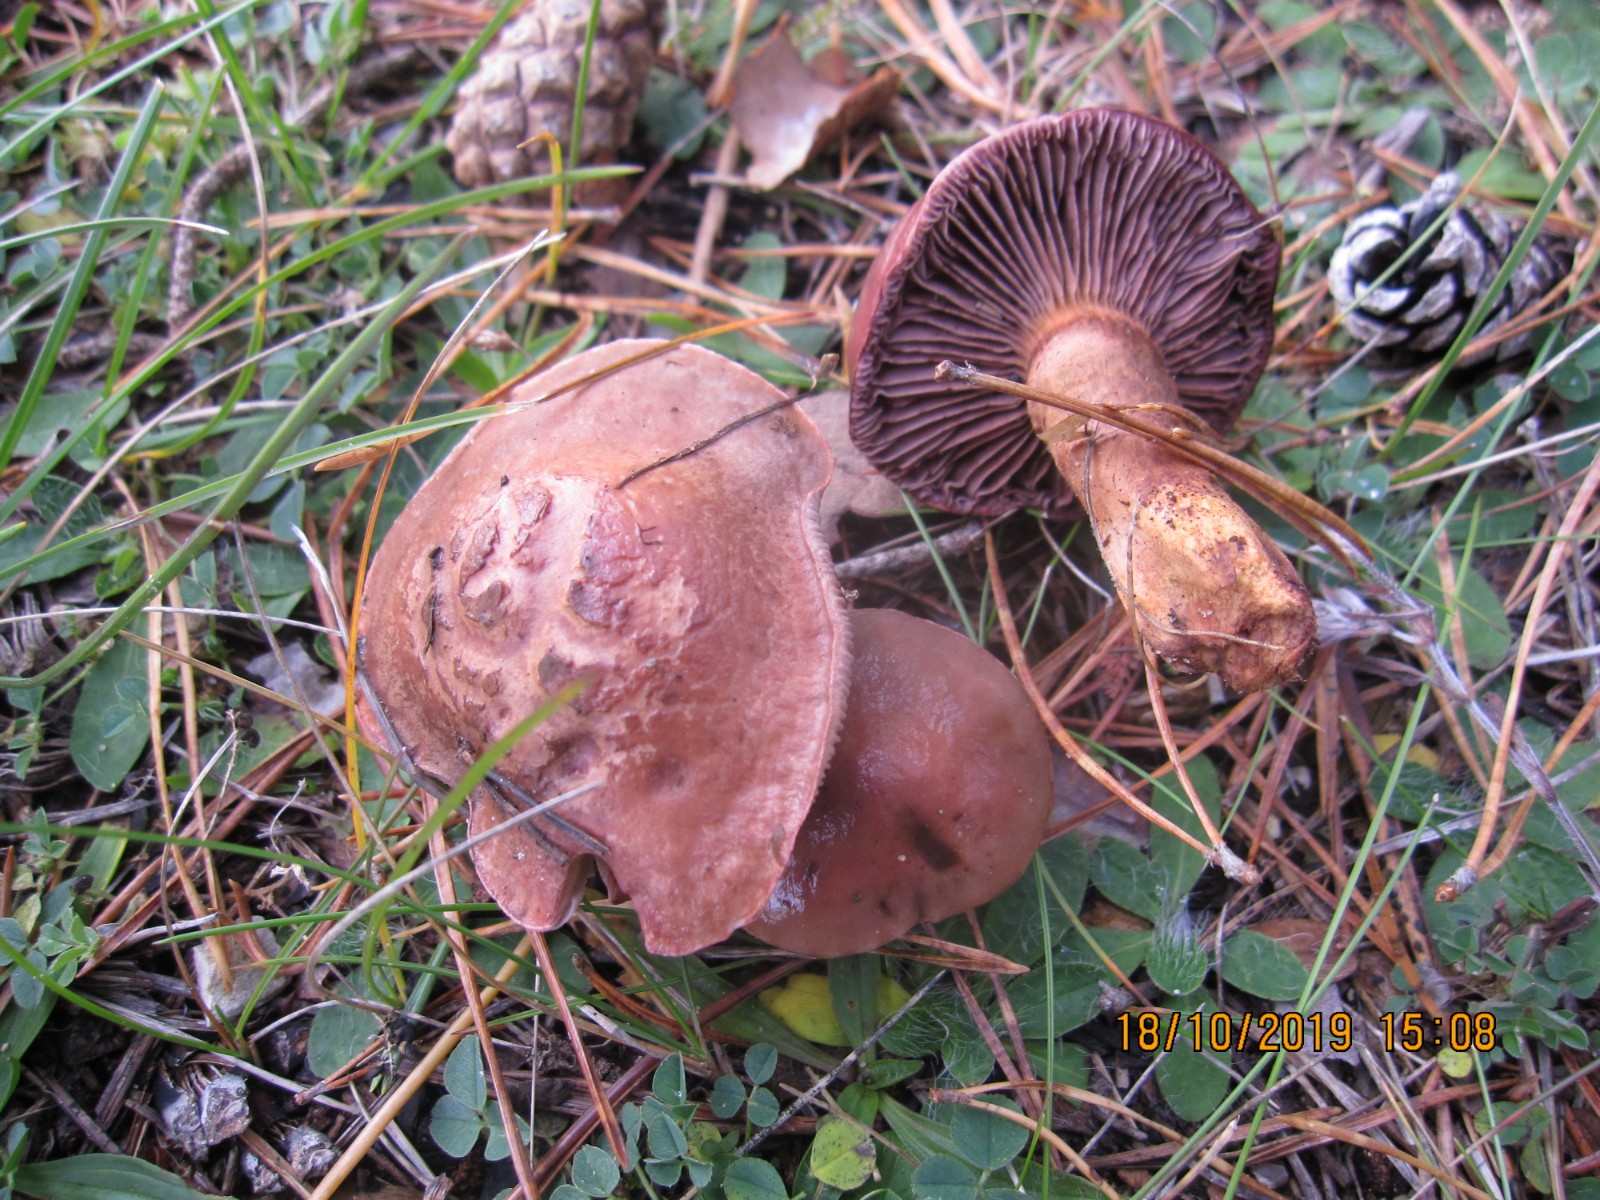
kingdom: Fungi
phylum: Basidiomycota
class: Agaricomycetes
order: Boletales
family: Gomphidiaceae
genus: Chroogomphus
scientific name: Chroogomphus rutilus
